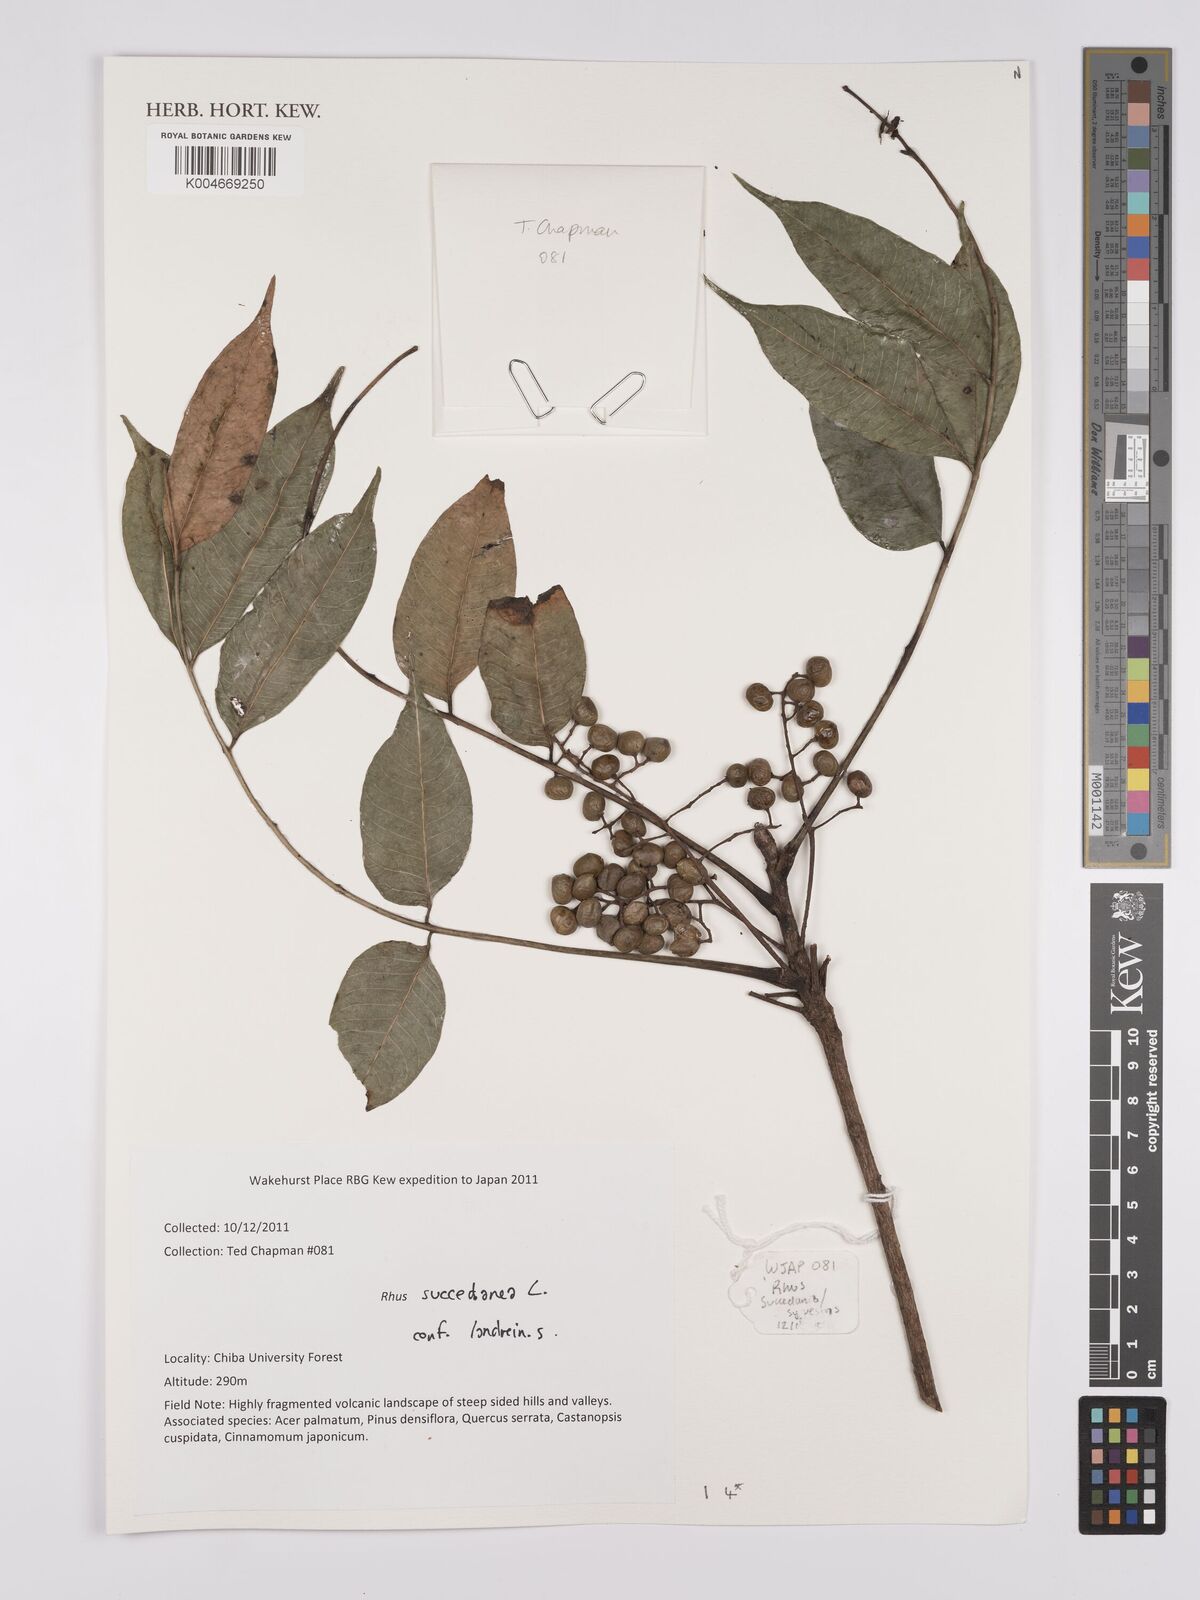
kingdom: Plantae
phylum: Tracheophyta
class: Magnoliopsida
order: Sapindales
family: Anacardiaceae
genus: Toxicodendron
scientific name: Toxicodendron succedaneum
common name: Wax tree
